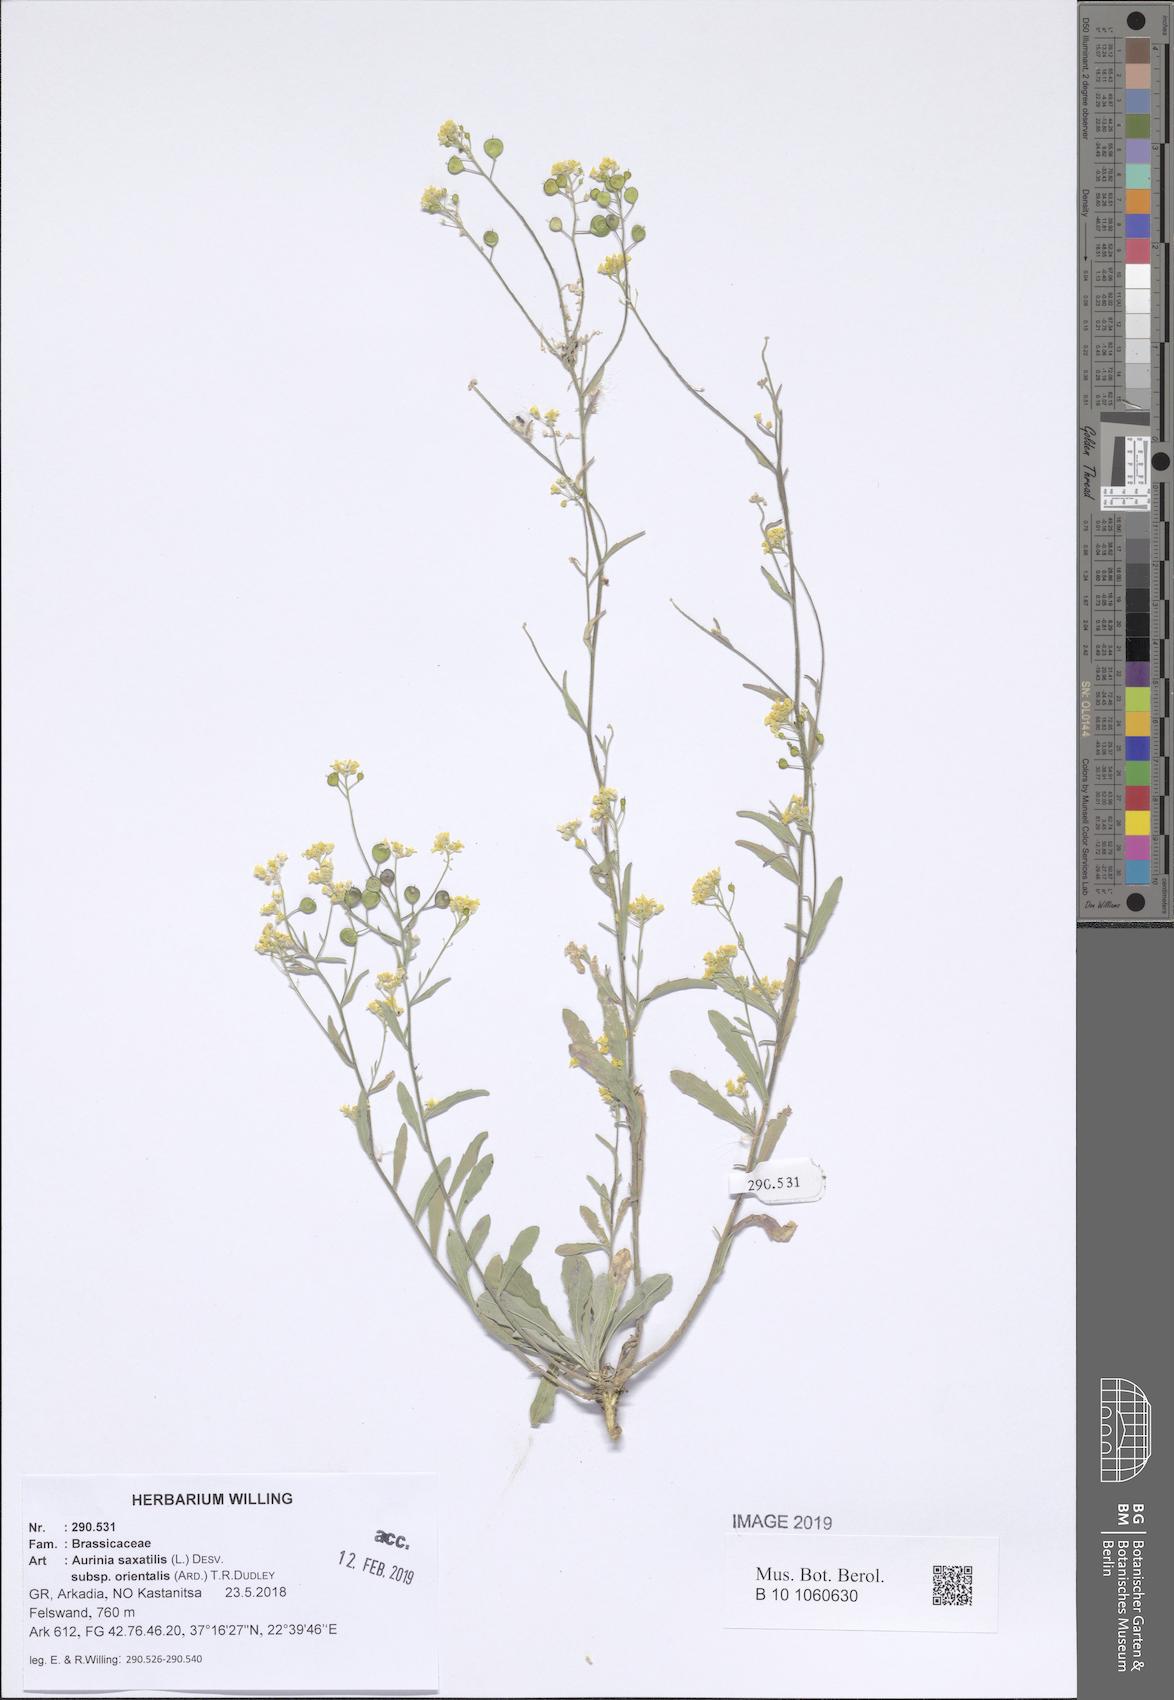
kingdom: Plantae
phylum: Tracheophyta
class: Magnoliopsida
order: Brassicales
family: Brassicaceae
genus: Aurinia
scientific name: Aurinia saxatilis
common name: Golden-tuft alyssum
